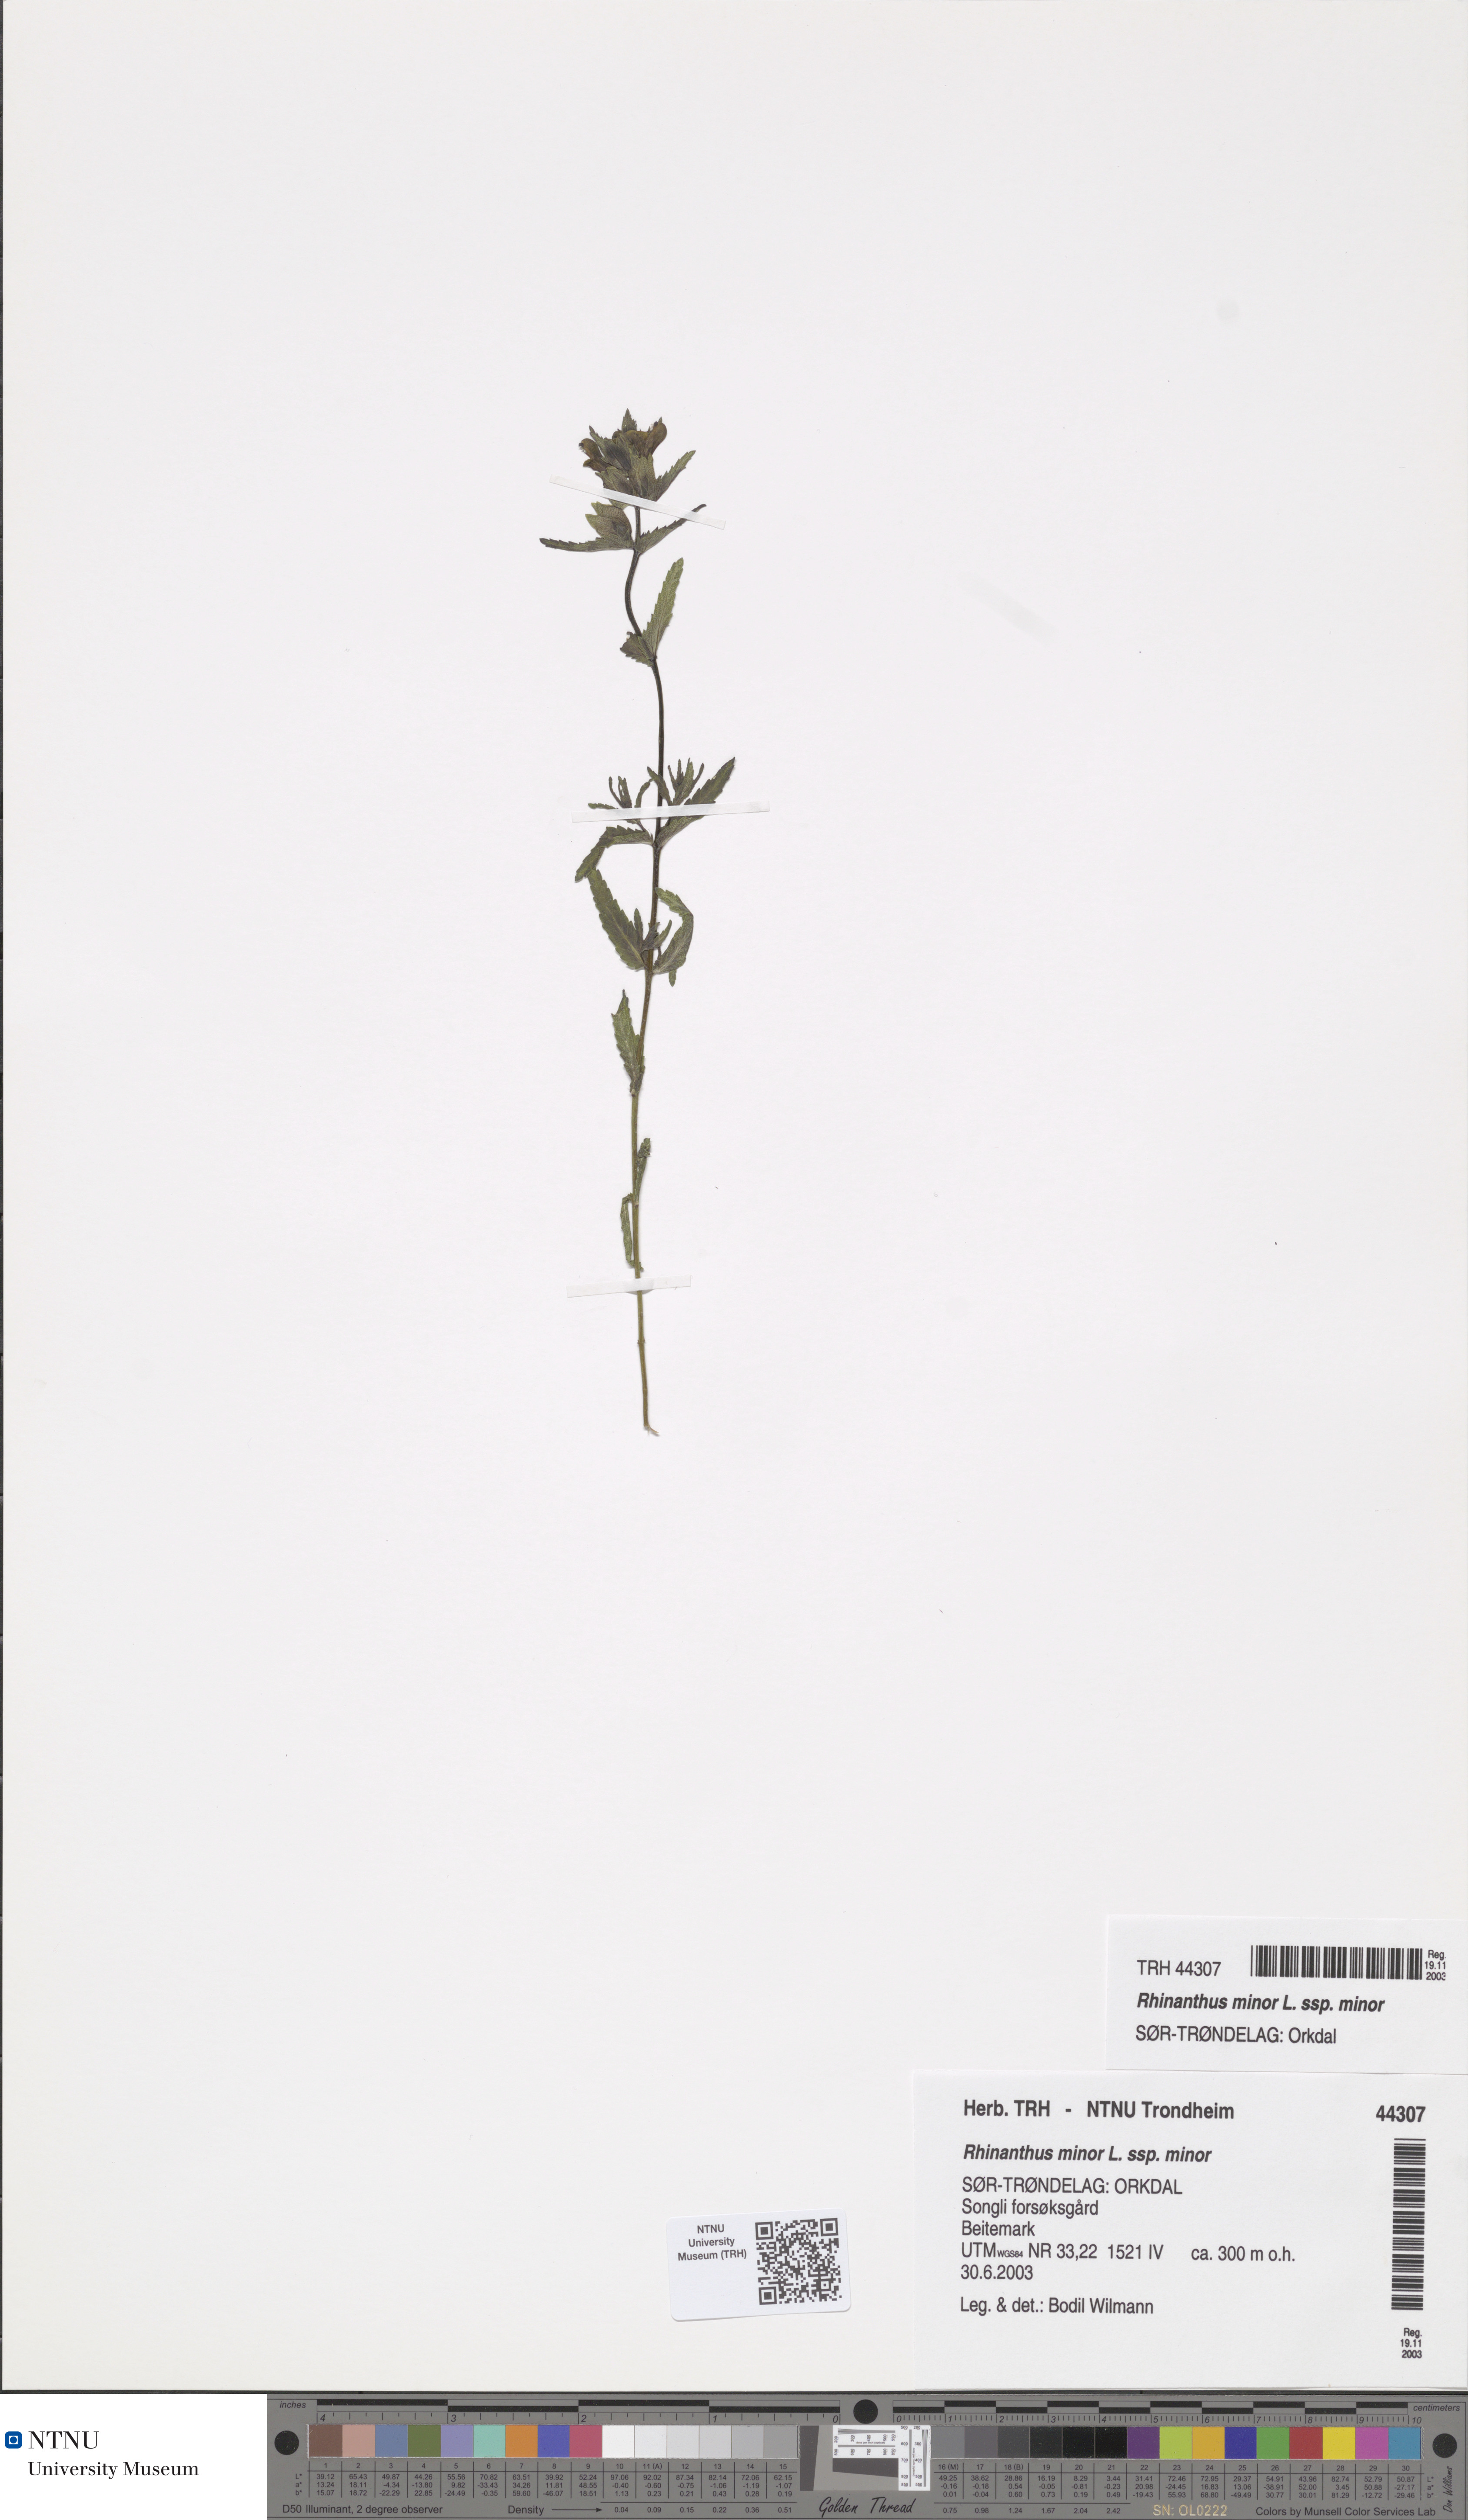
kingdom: Plantae
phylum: Tracheophyta
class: Magnoliopsida
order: Lamiales
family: Orobanchaceae
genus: Rhinanthus
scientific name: Rhinanthus minor
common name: Yellow-rattle
